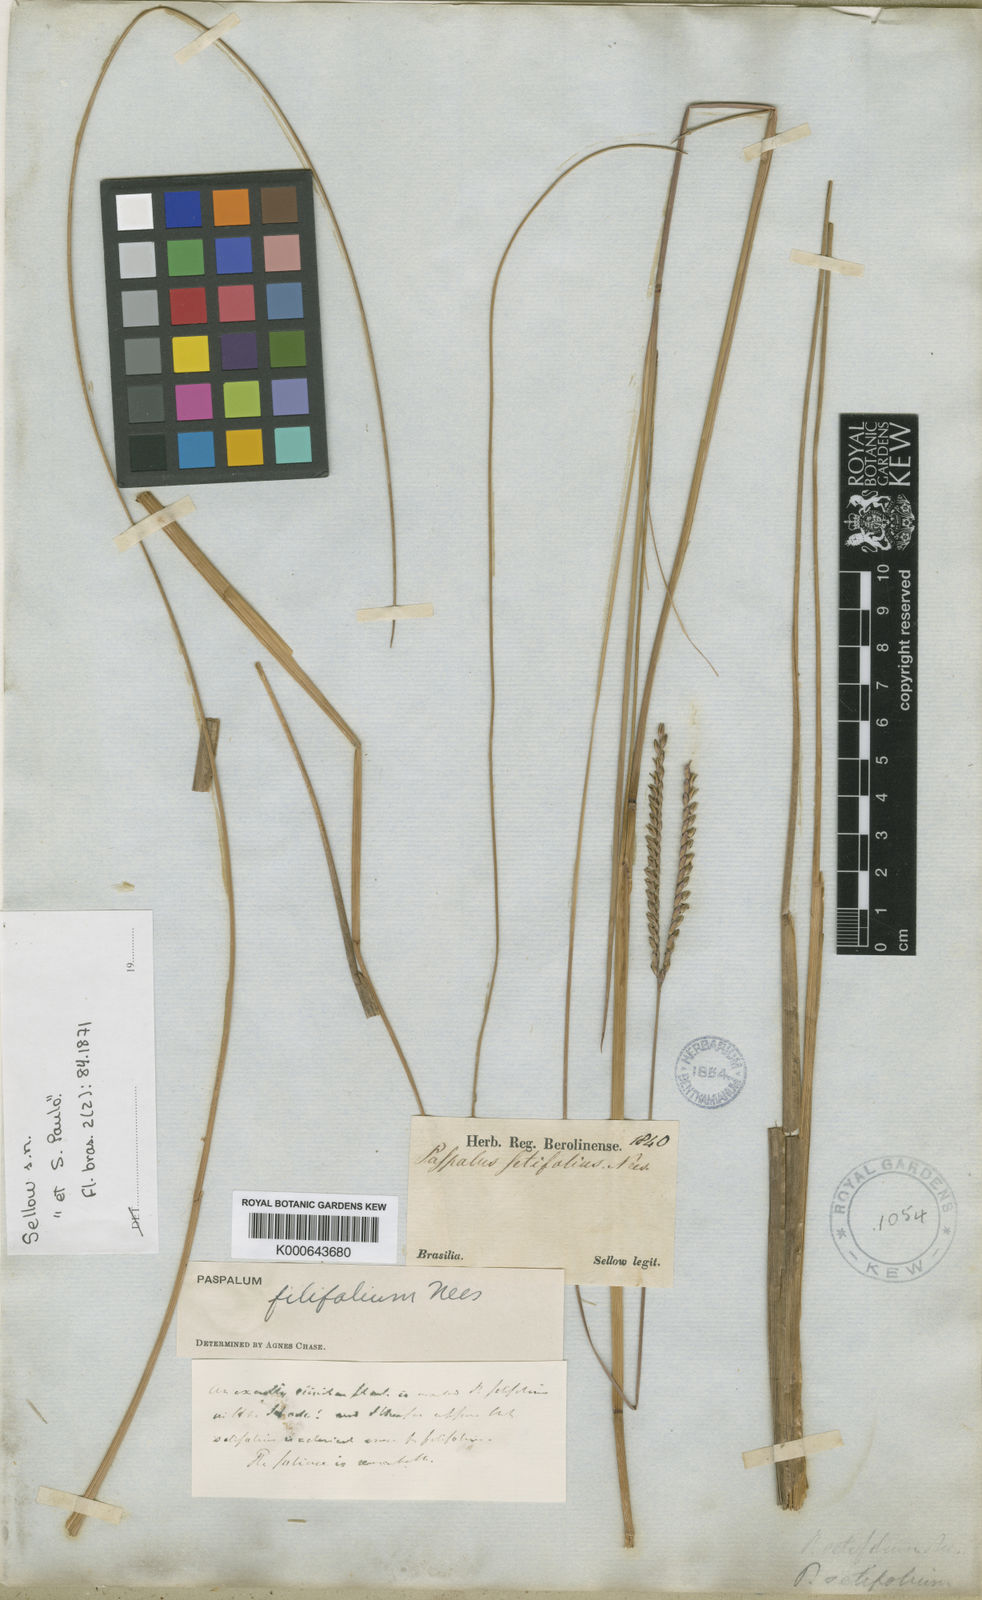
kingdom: Plantae
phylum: Tracheophyta
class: Liliopsida
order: Poales
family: Poaceae
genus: Paspalum
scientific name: Paspalum filifolium
